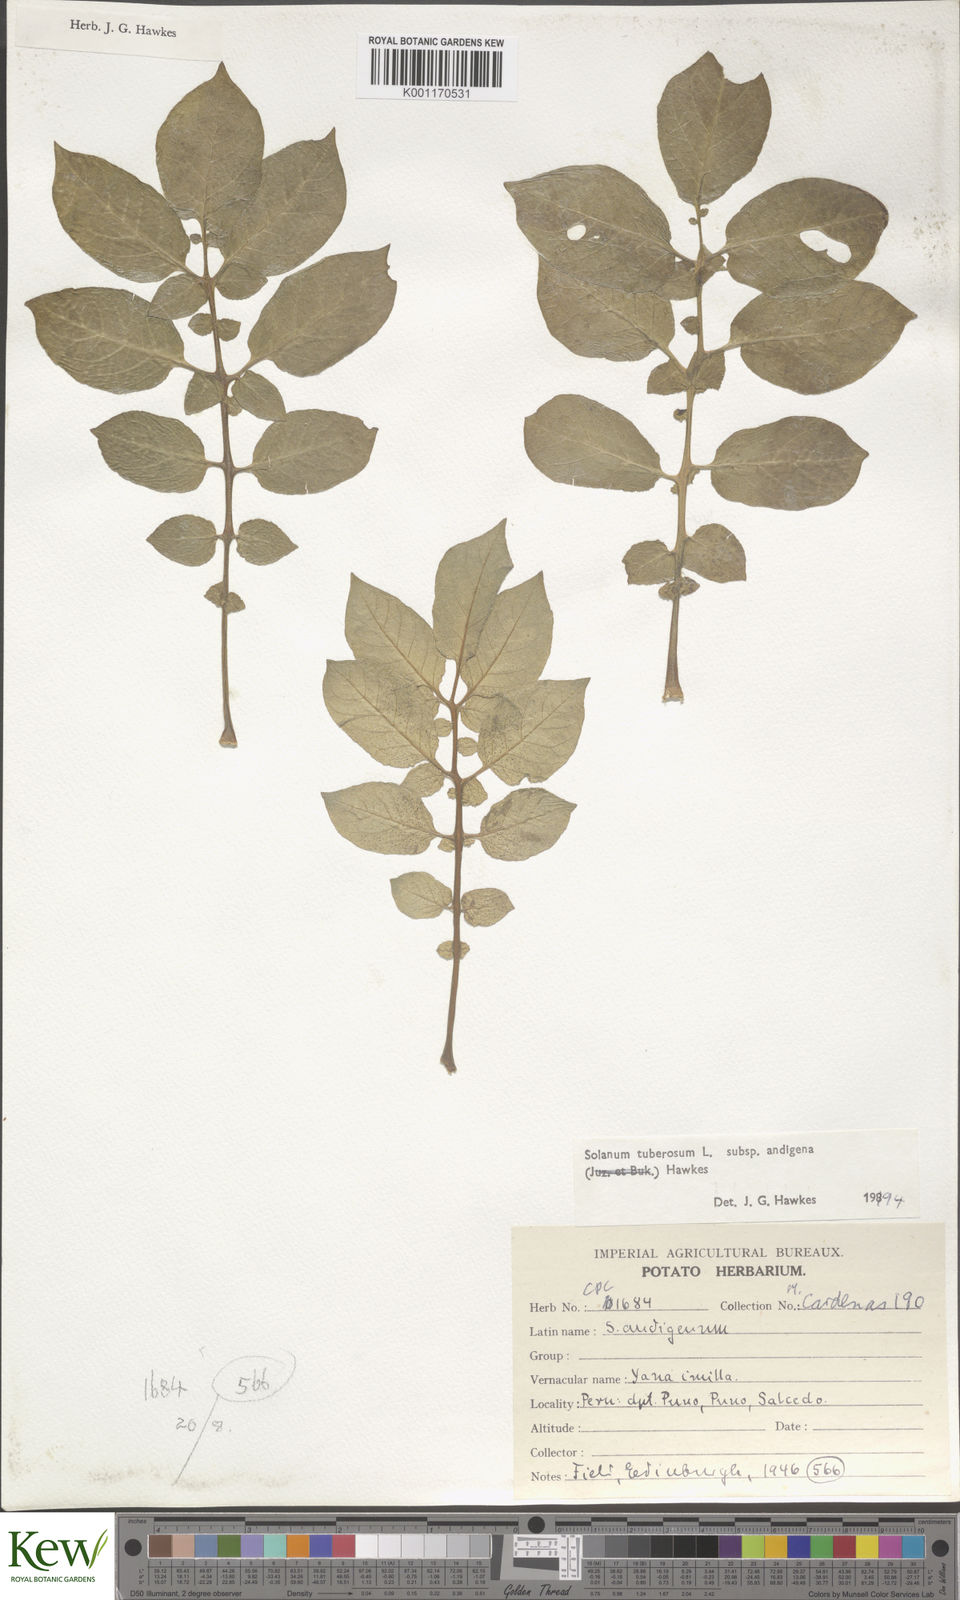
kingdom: Plantae
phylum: Tracheophyta
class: Magnoliopsida
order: Solanales
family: Solanaceae
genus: Solanum
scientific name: Solanum tuberosum
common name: Potato
